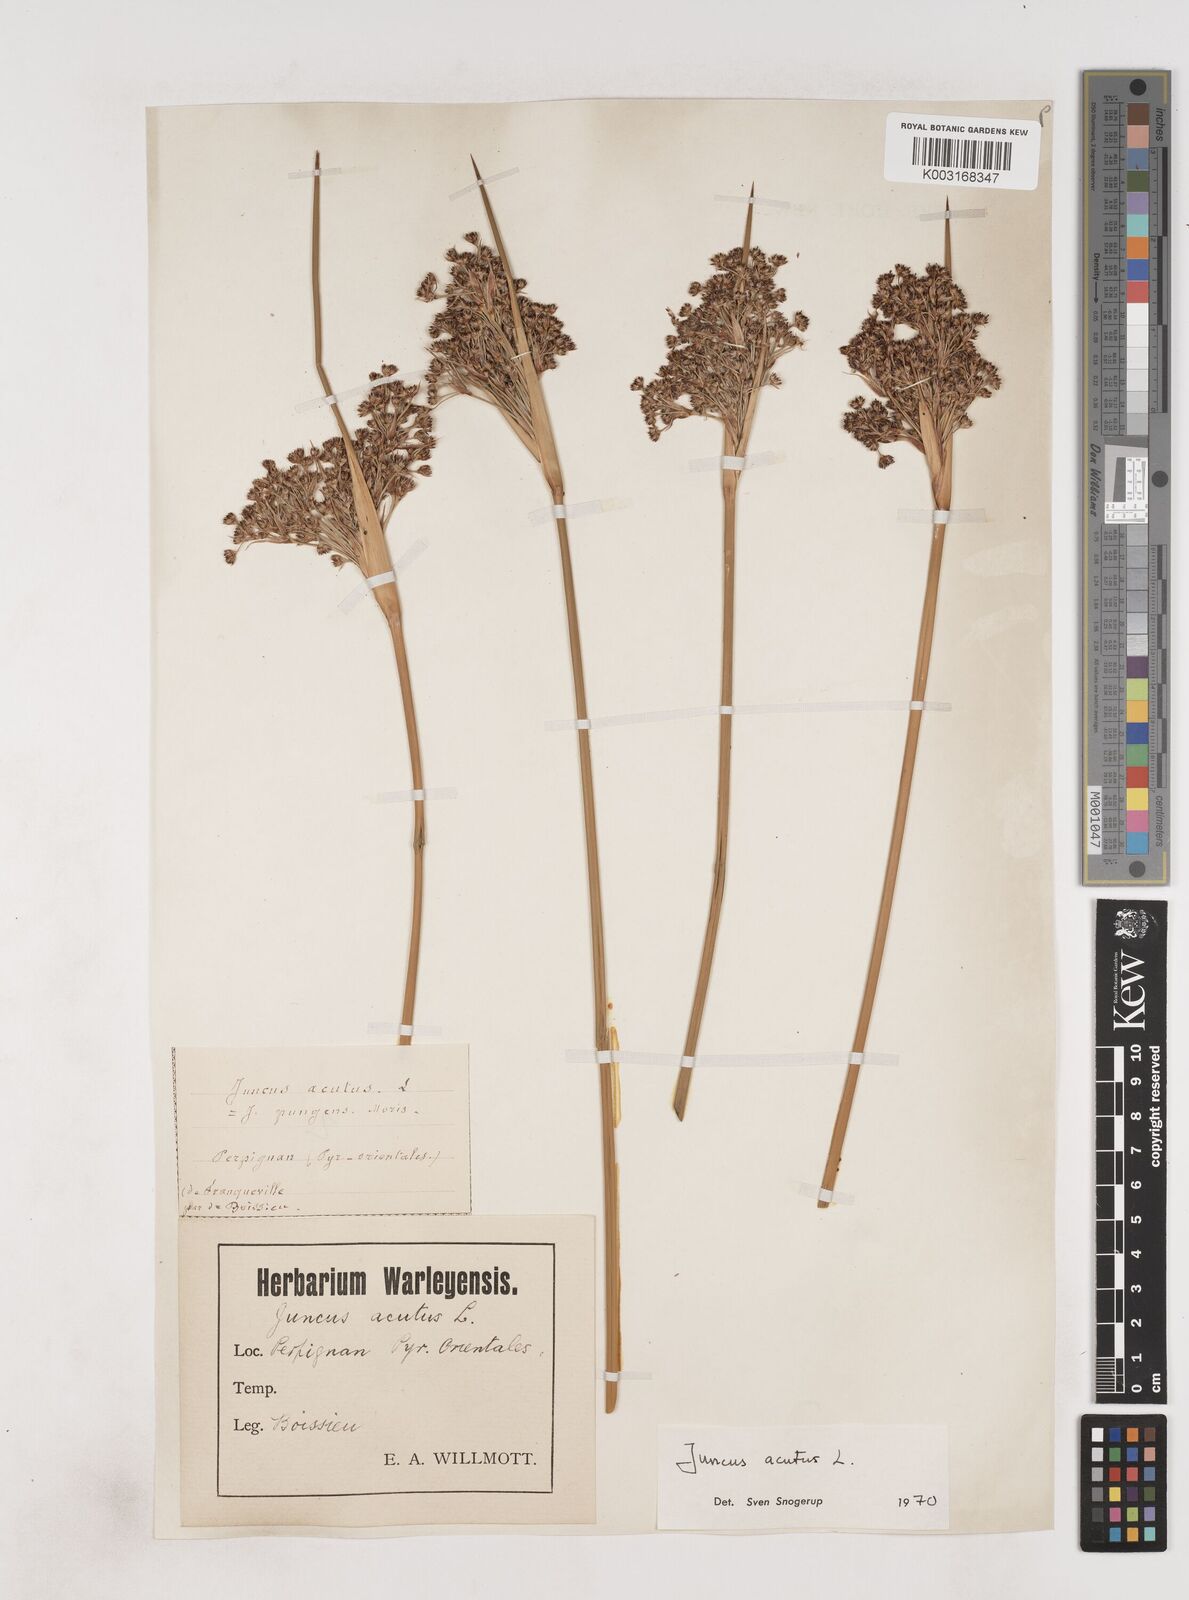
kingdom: Plantae
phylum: Tracheophyta
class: Liliopsida
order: Poales
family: Juncaceae
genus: Juncus
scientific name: Juncus acutus
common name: Sharp rush
